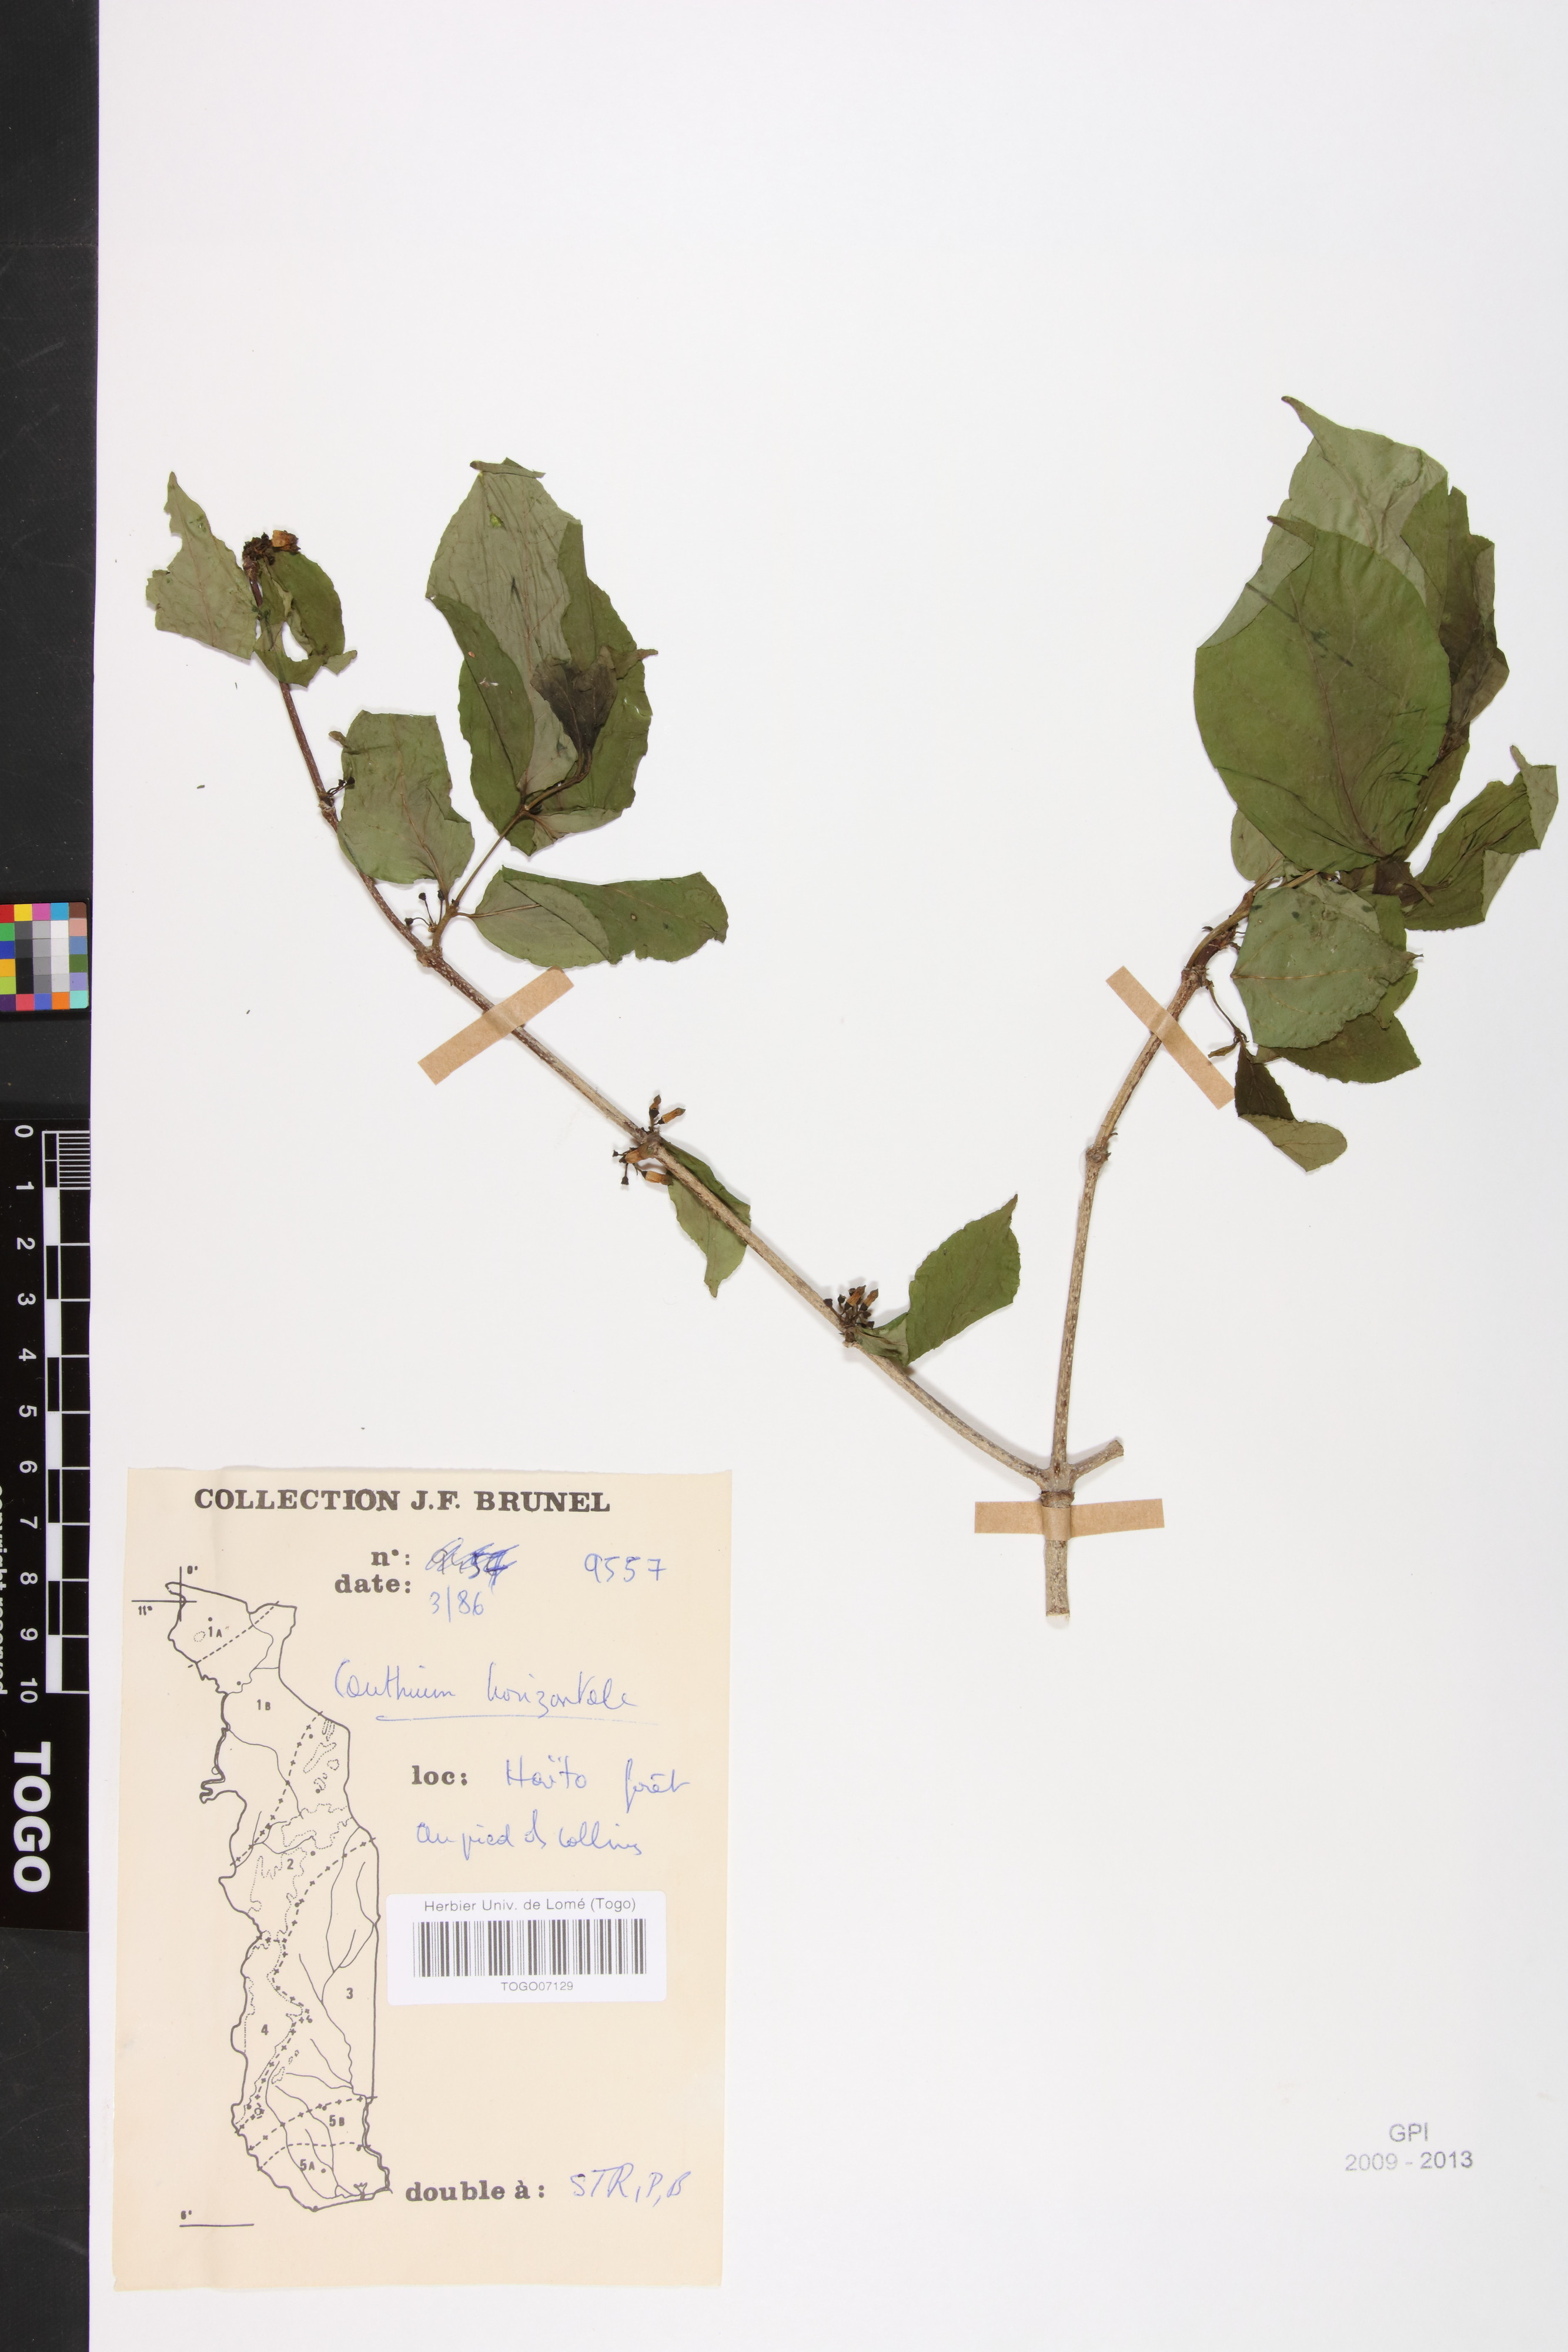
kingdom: Plantae
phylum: Tracheophyta
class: Magnoliopsida
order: Gentianales
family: Rubiaceae
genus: Psydrax
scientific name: Psydrax horizontalis
